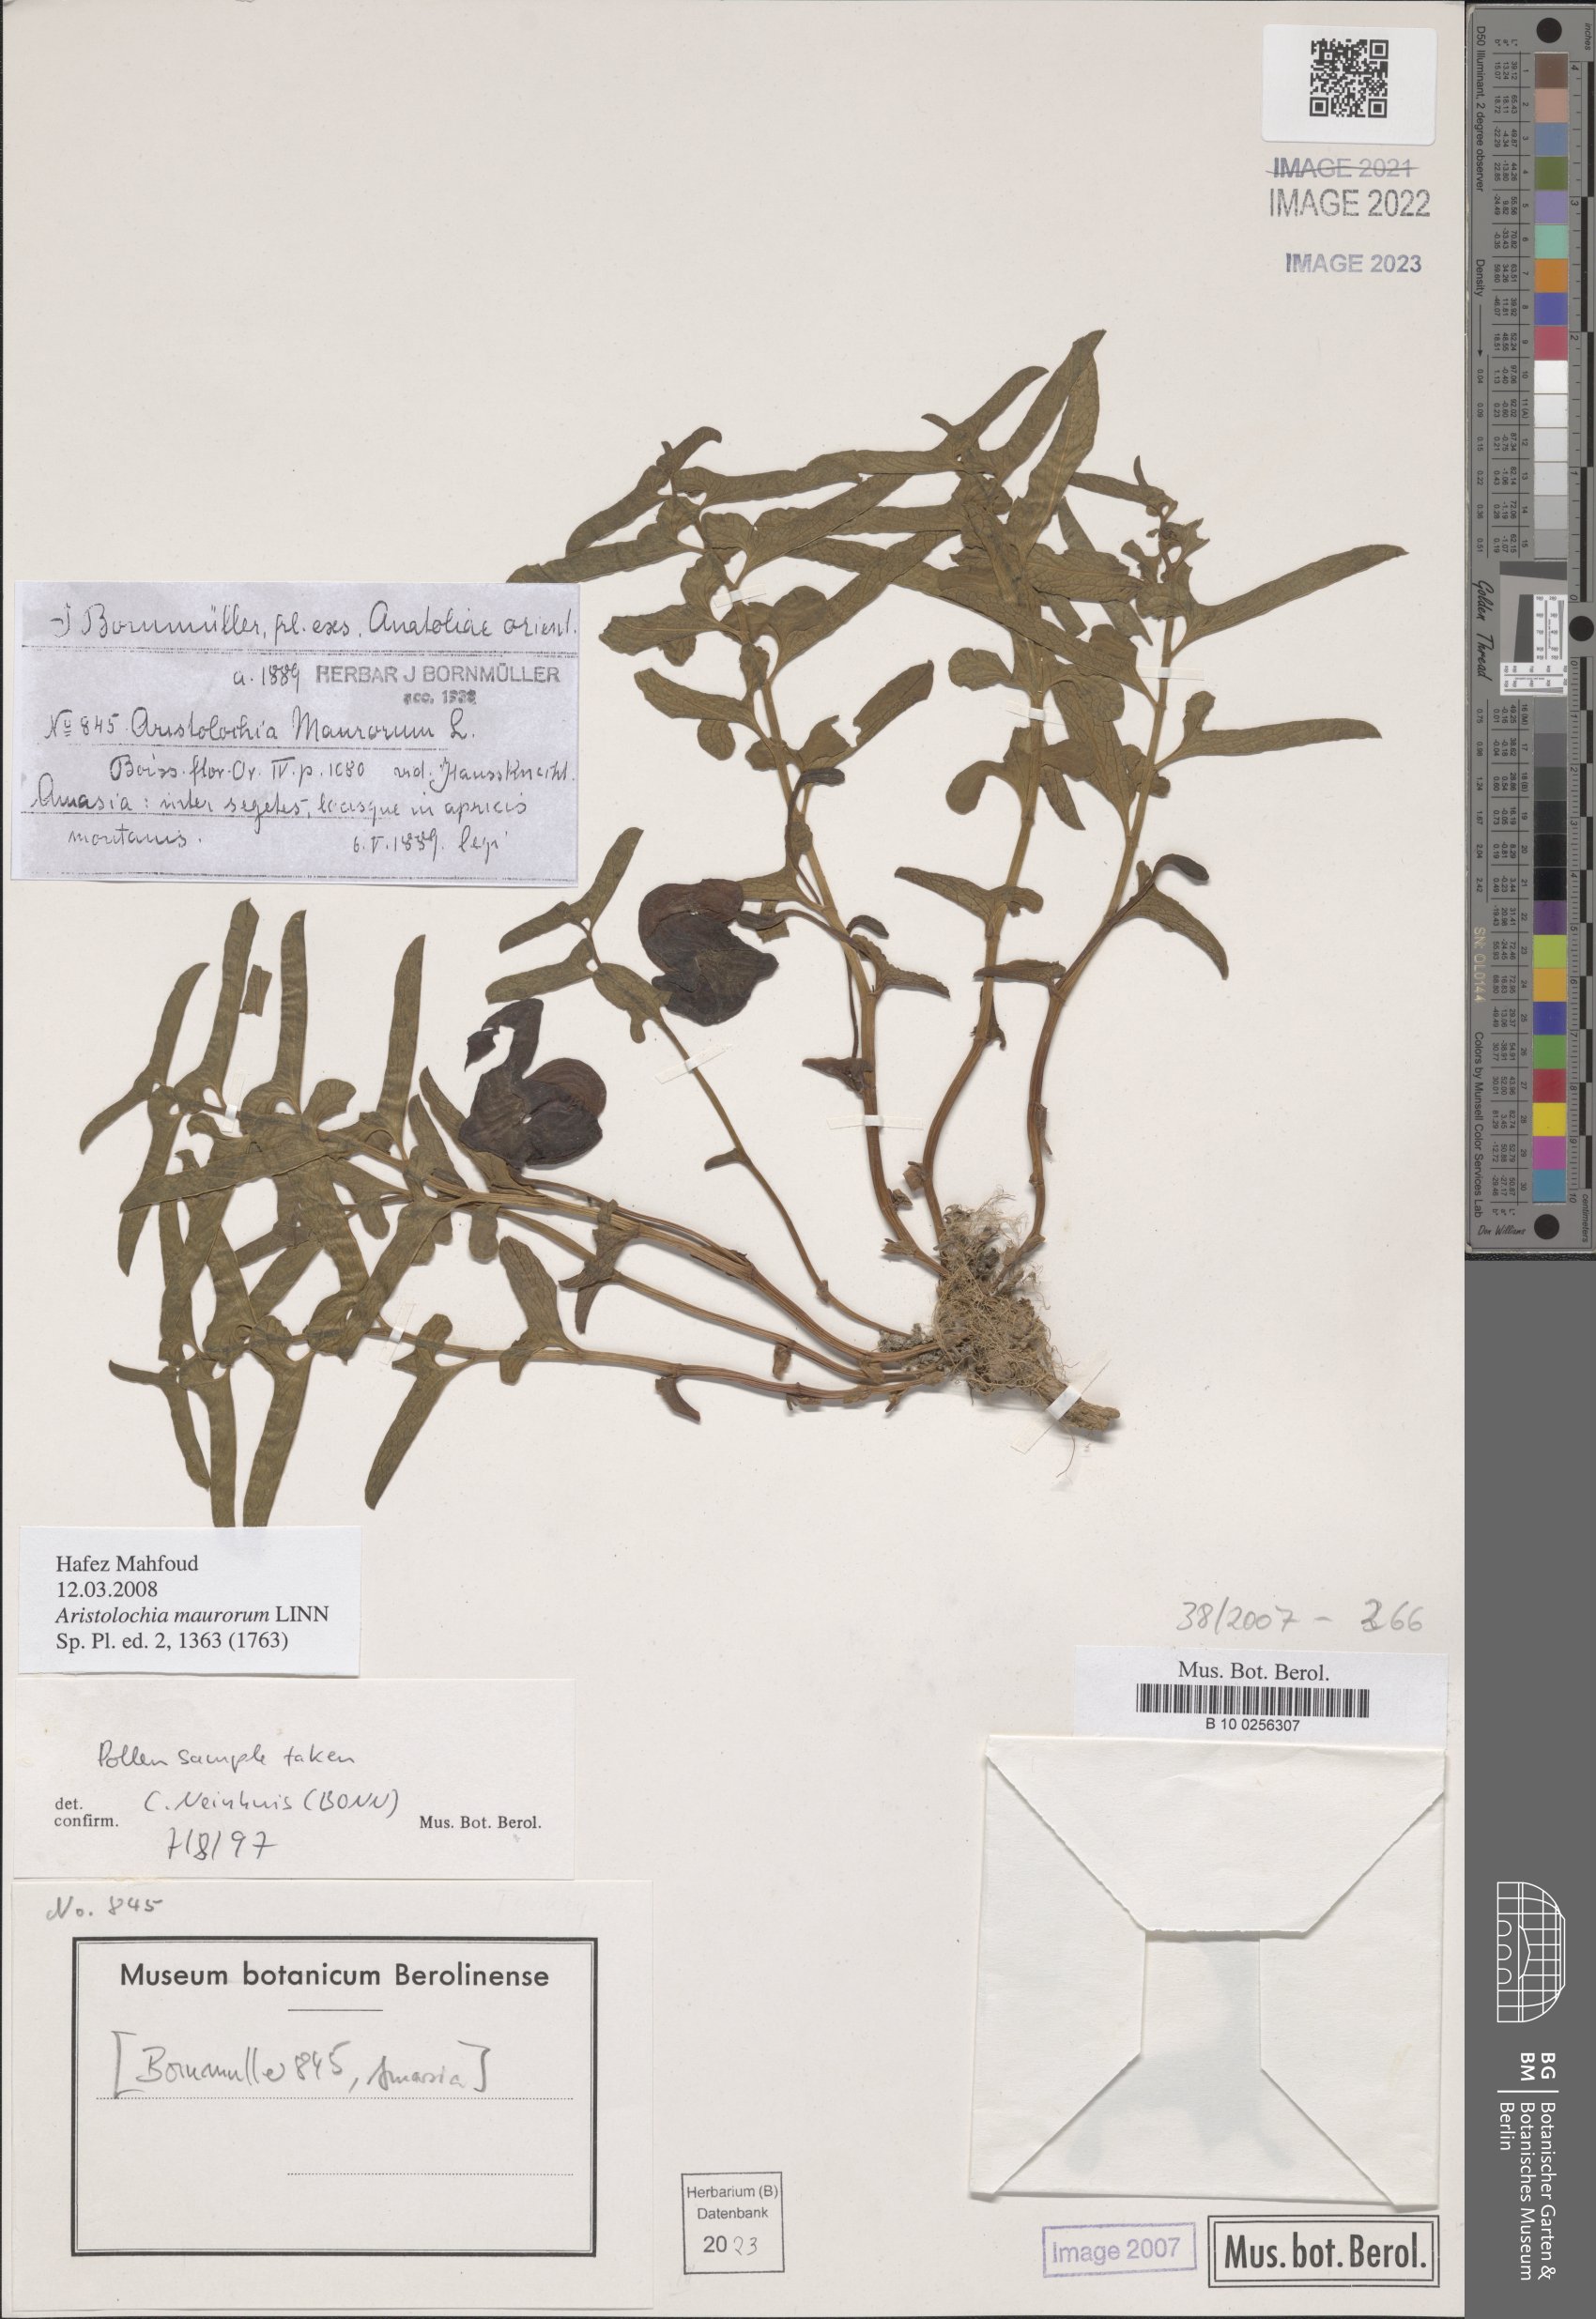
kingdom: Plantae
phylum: Tracheophyta
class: Magnoliopsida
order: Piperales
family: Aristolochiaceae
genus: Aristolochia
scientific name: Aristolochia maurorum
